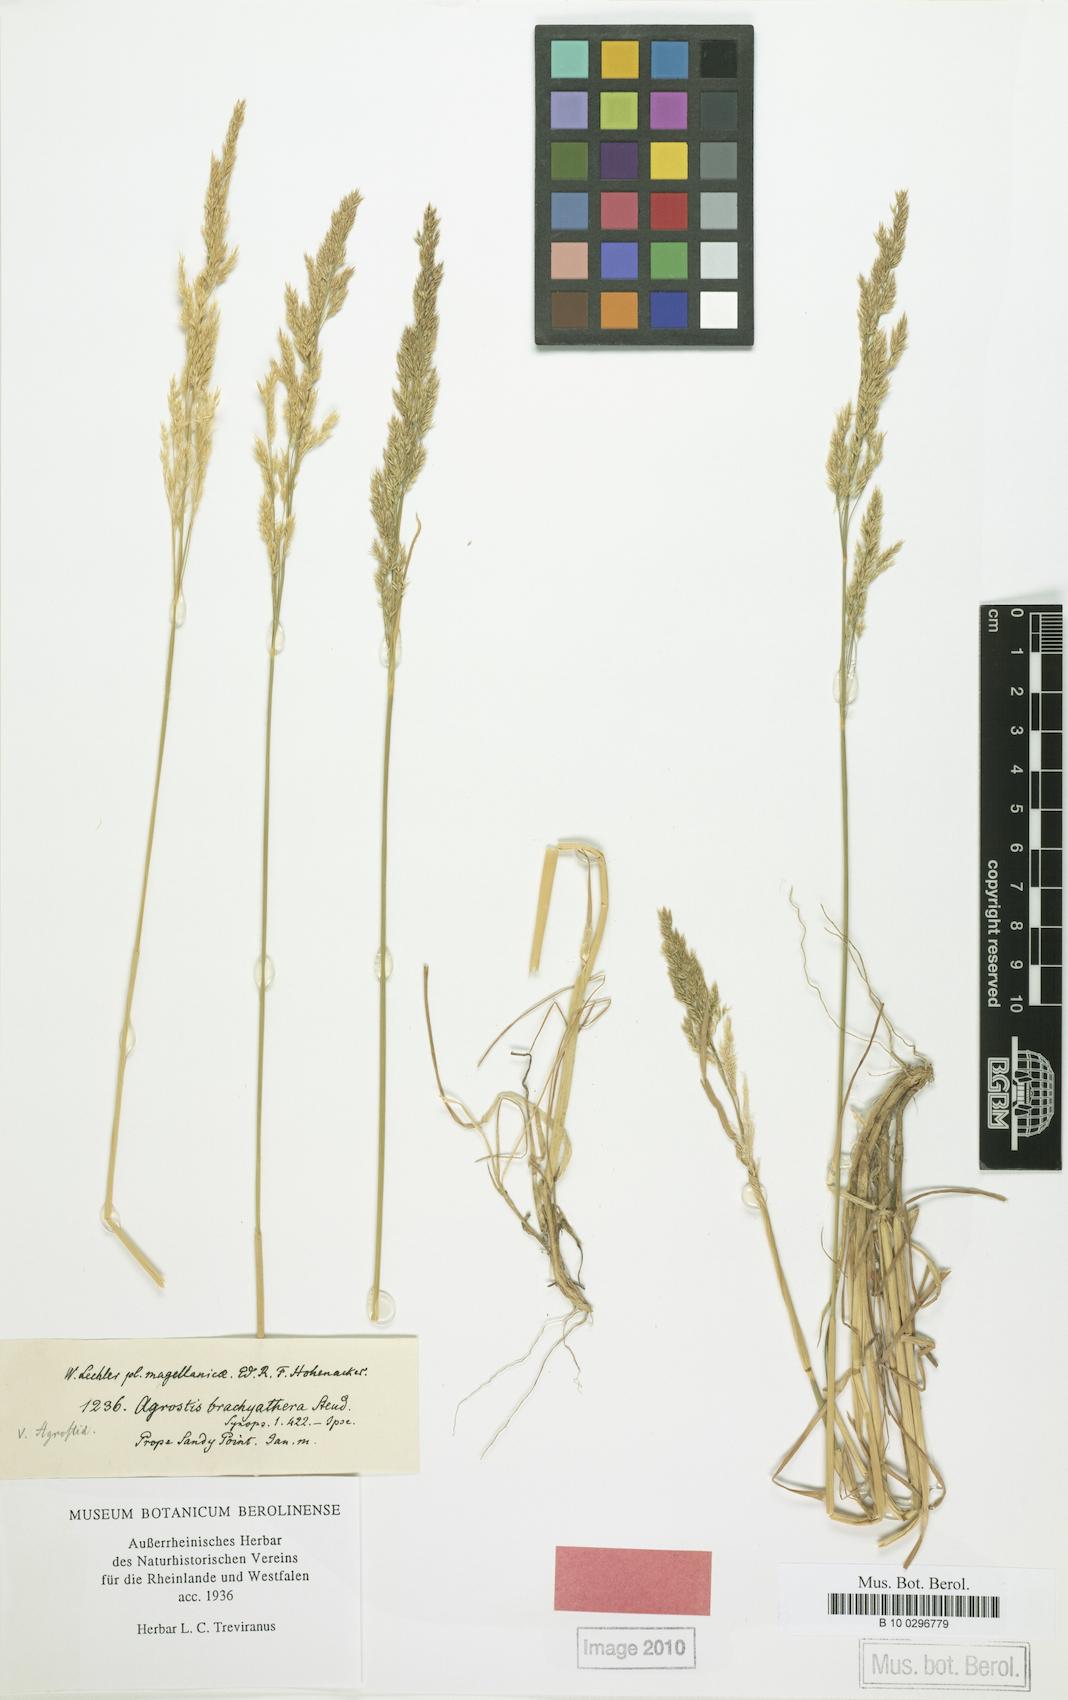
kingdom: Plantae
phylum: Tracheophyta
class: Liliopsida
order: Poales
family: Poaceae
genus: Agrostis
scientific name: Agrostis brachyathera
